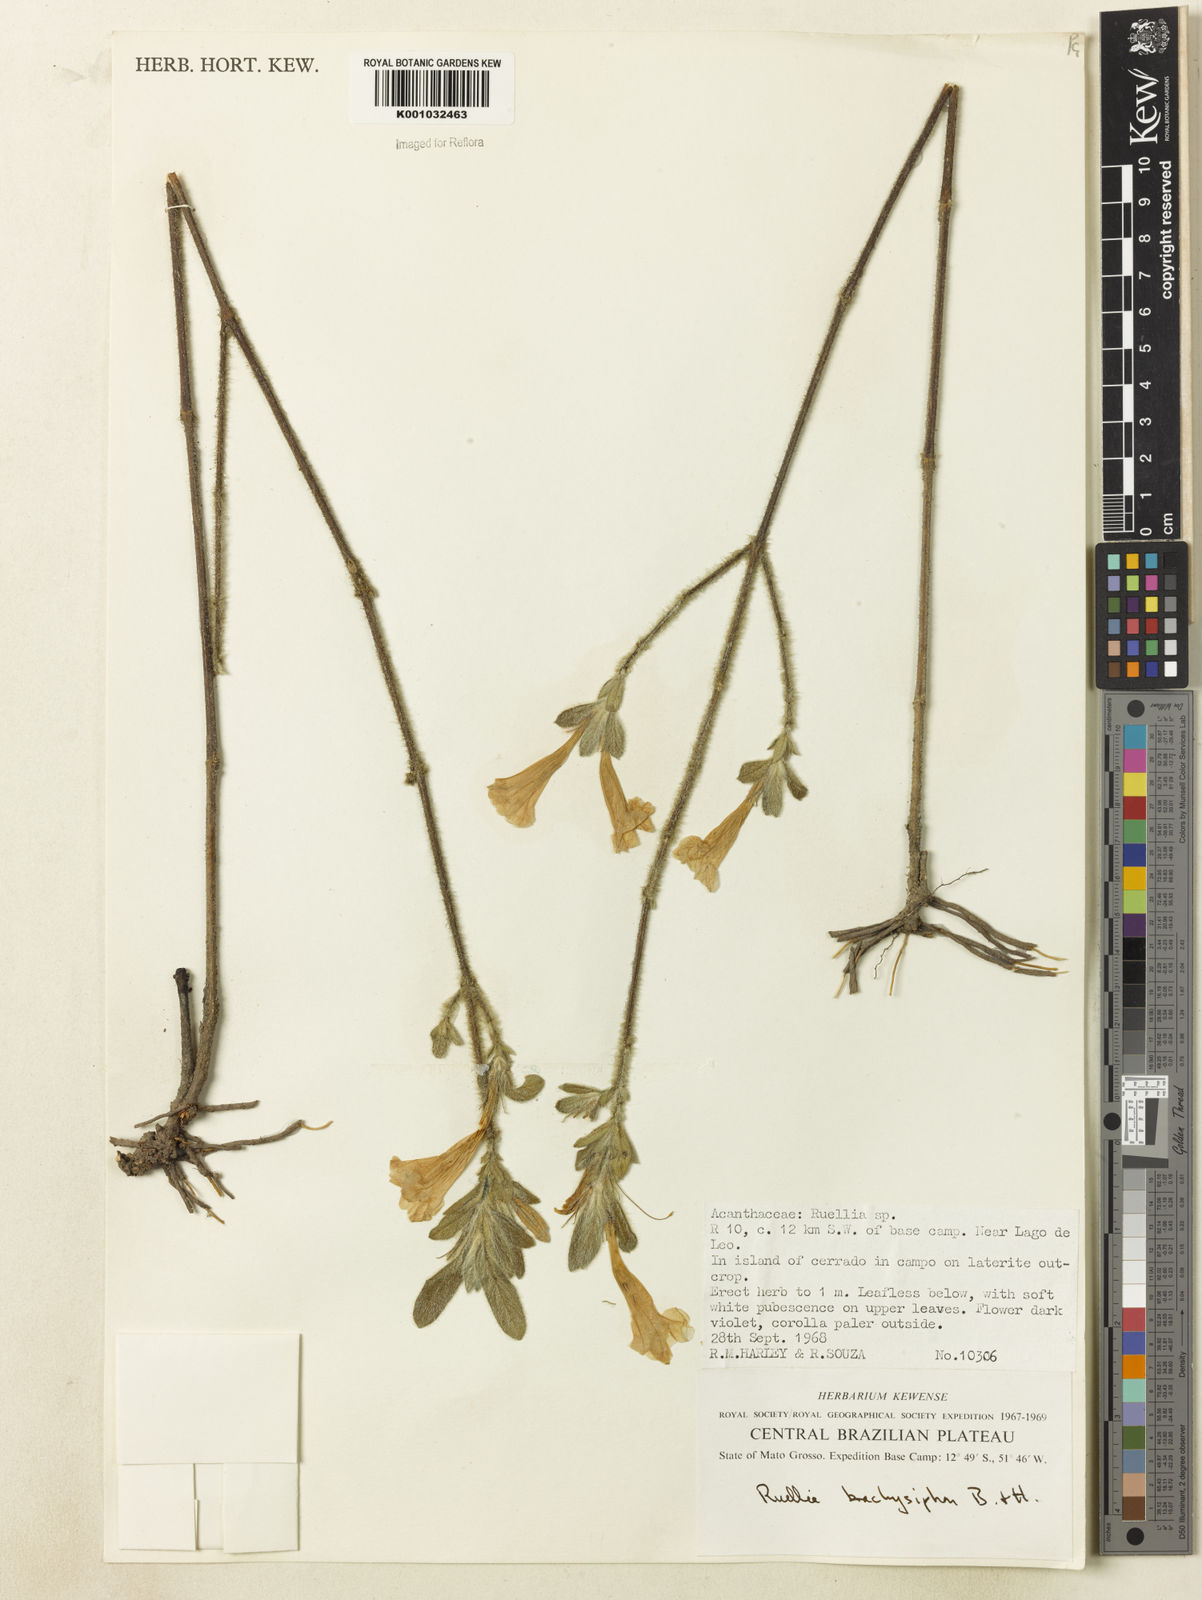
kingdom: Plantae
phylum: Tracheophyta
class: Magnoliopsida
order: Lamiales
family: Acanthaceae
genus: Ruellia
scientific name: Ruellia
